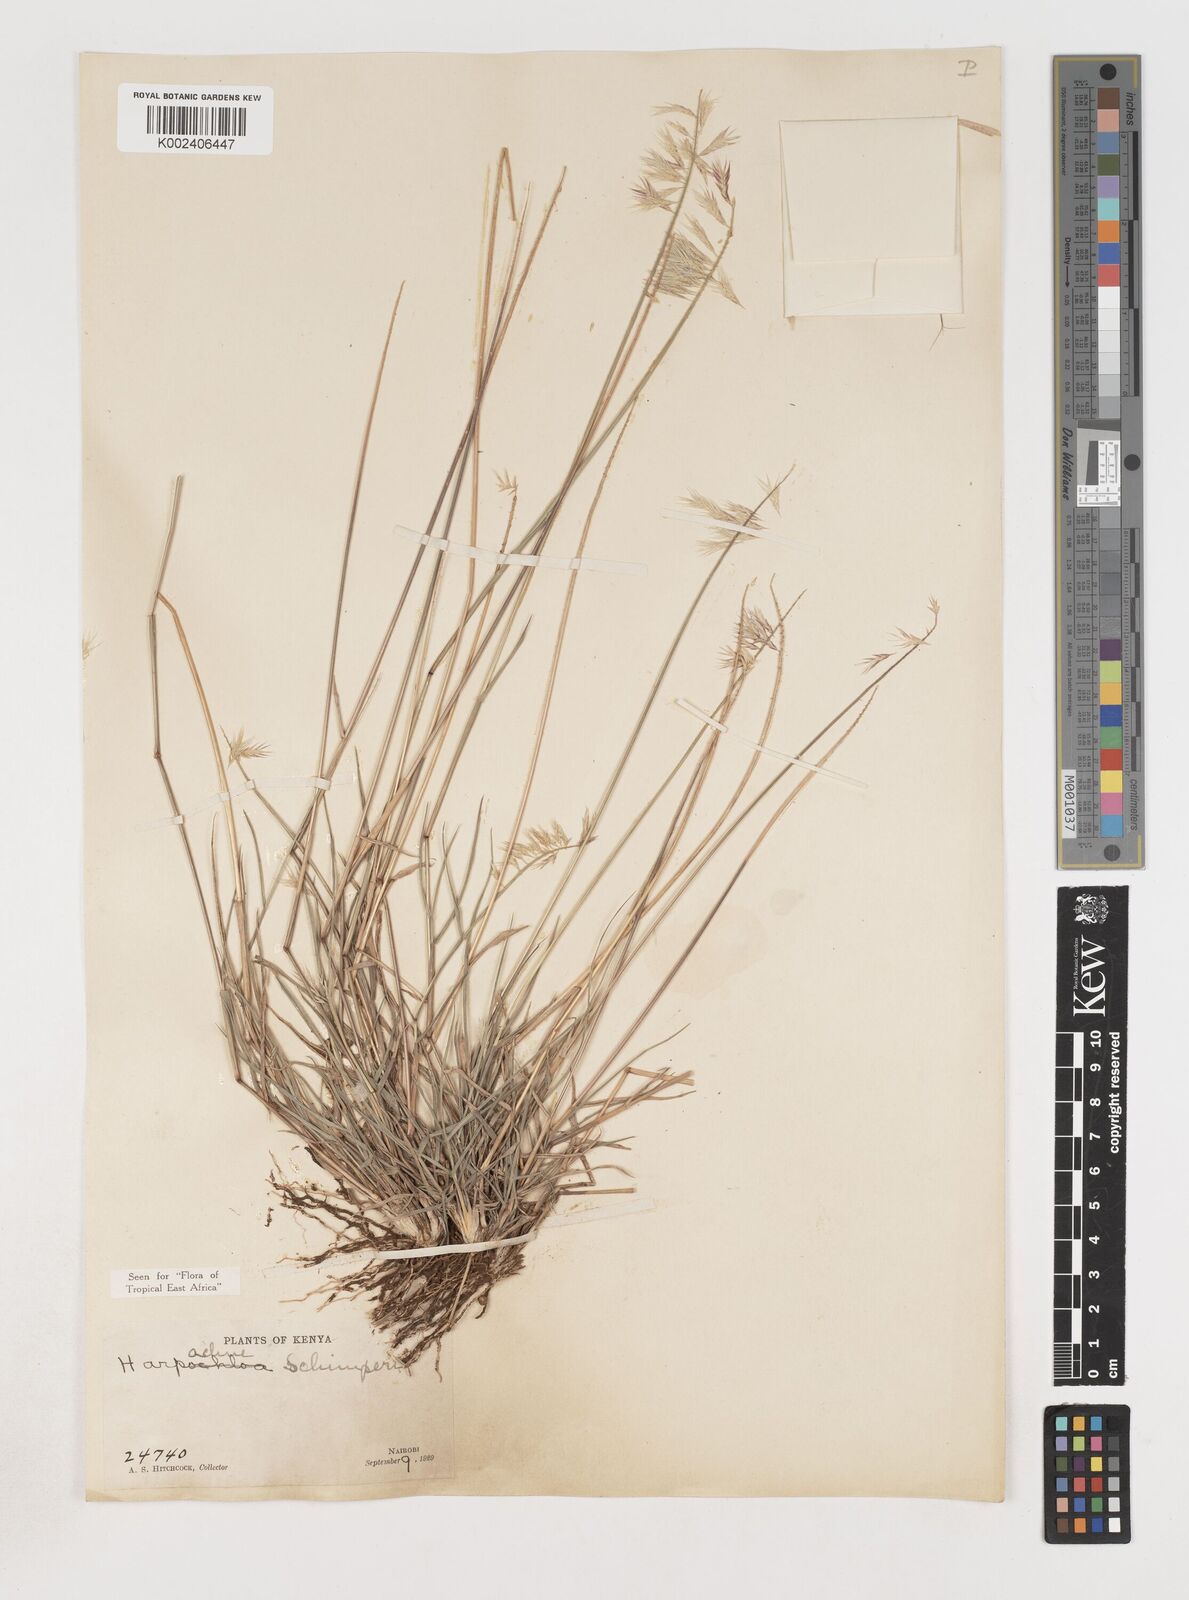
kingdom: Plantae
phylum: Tracheophyta
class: Liliopsida
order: Poales
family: Poaceae
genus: Harpachne
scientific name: Harpachne schimperi
